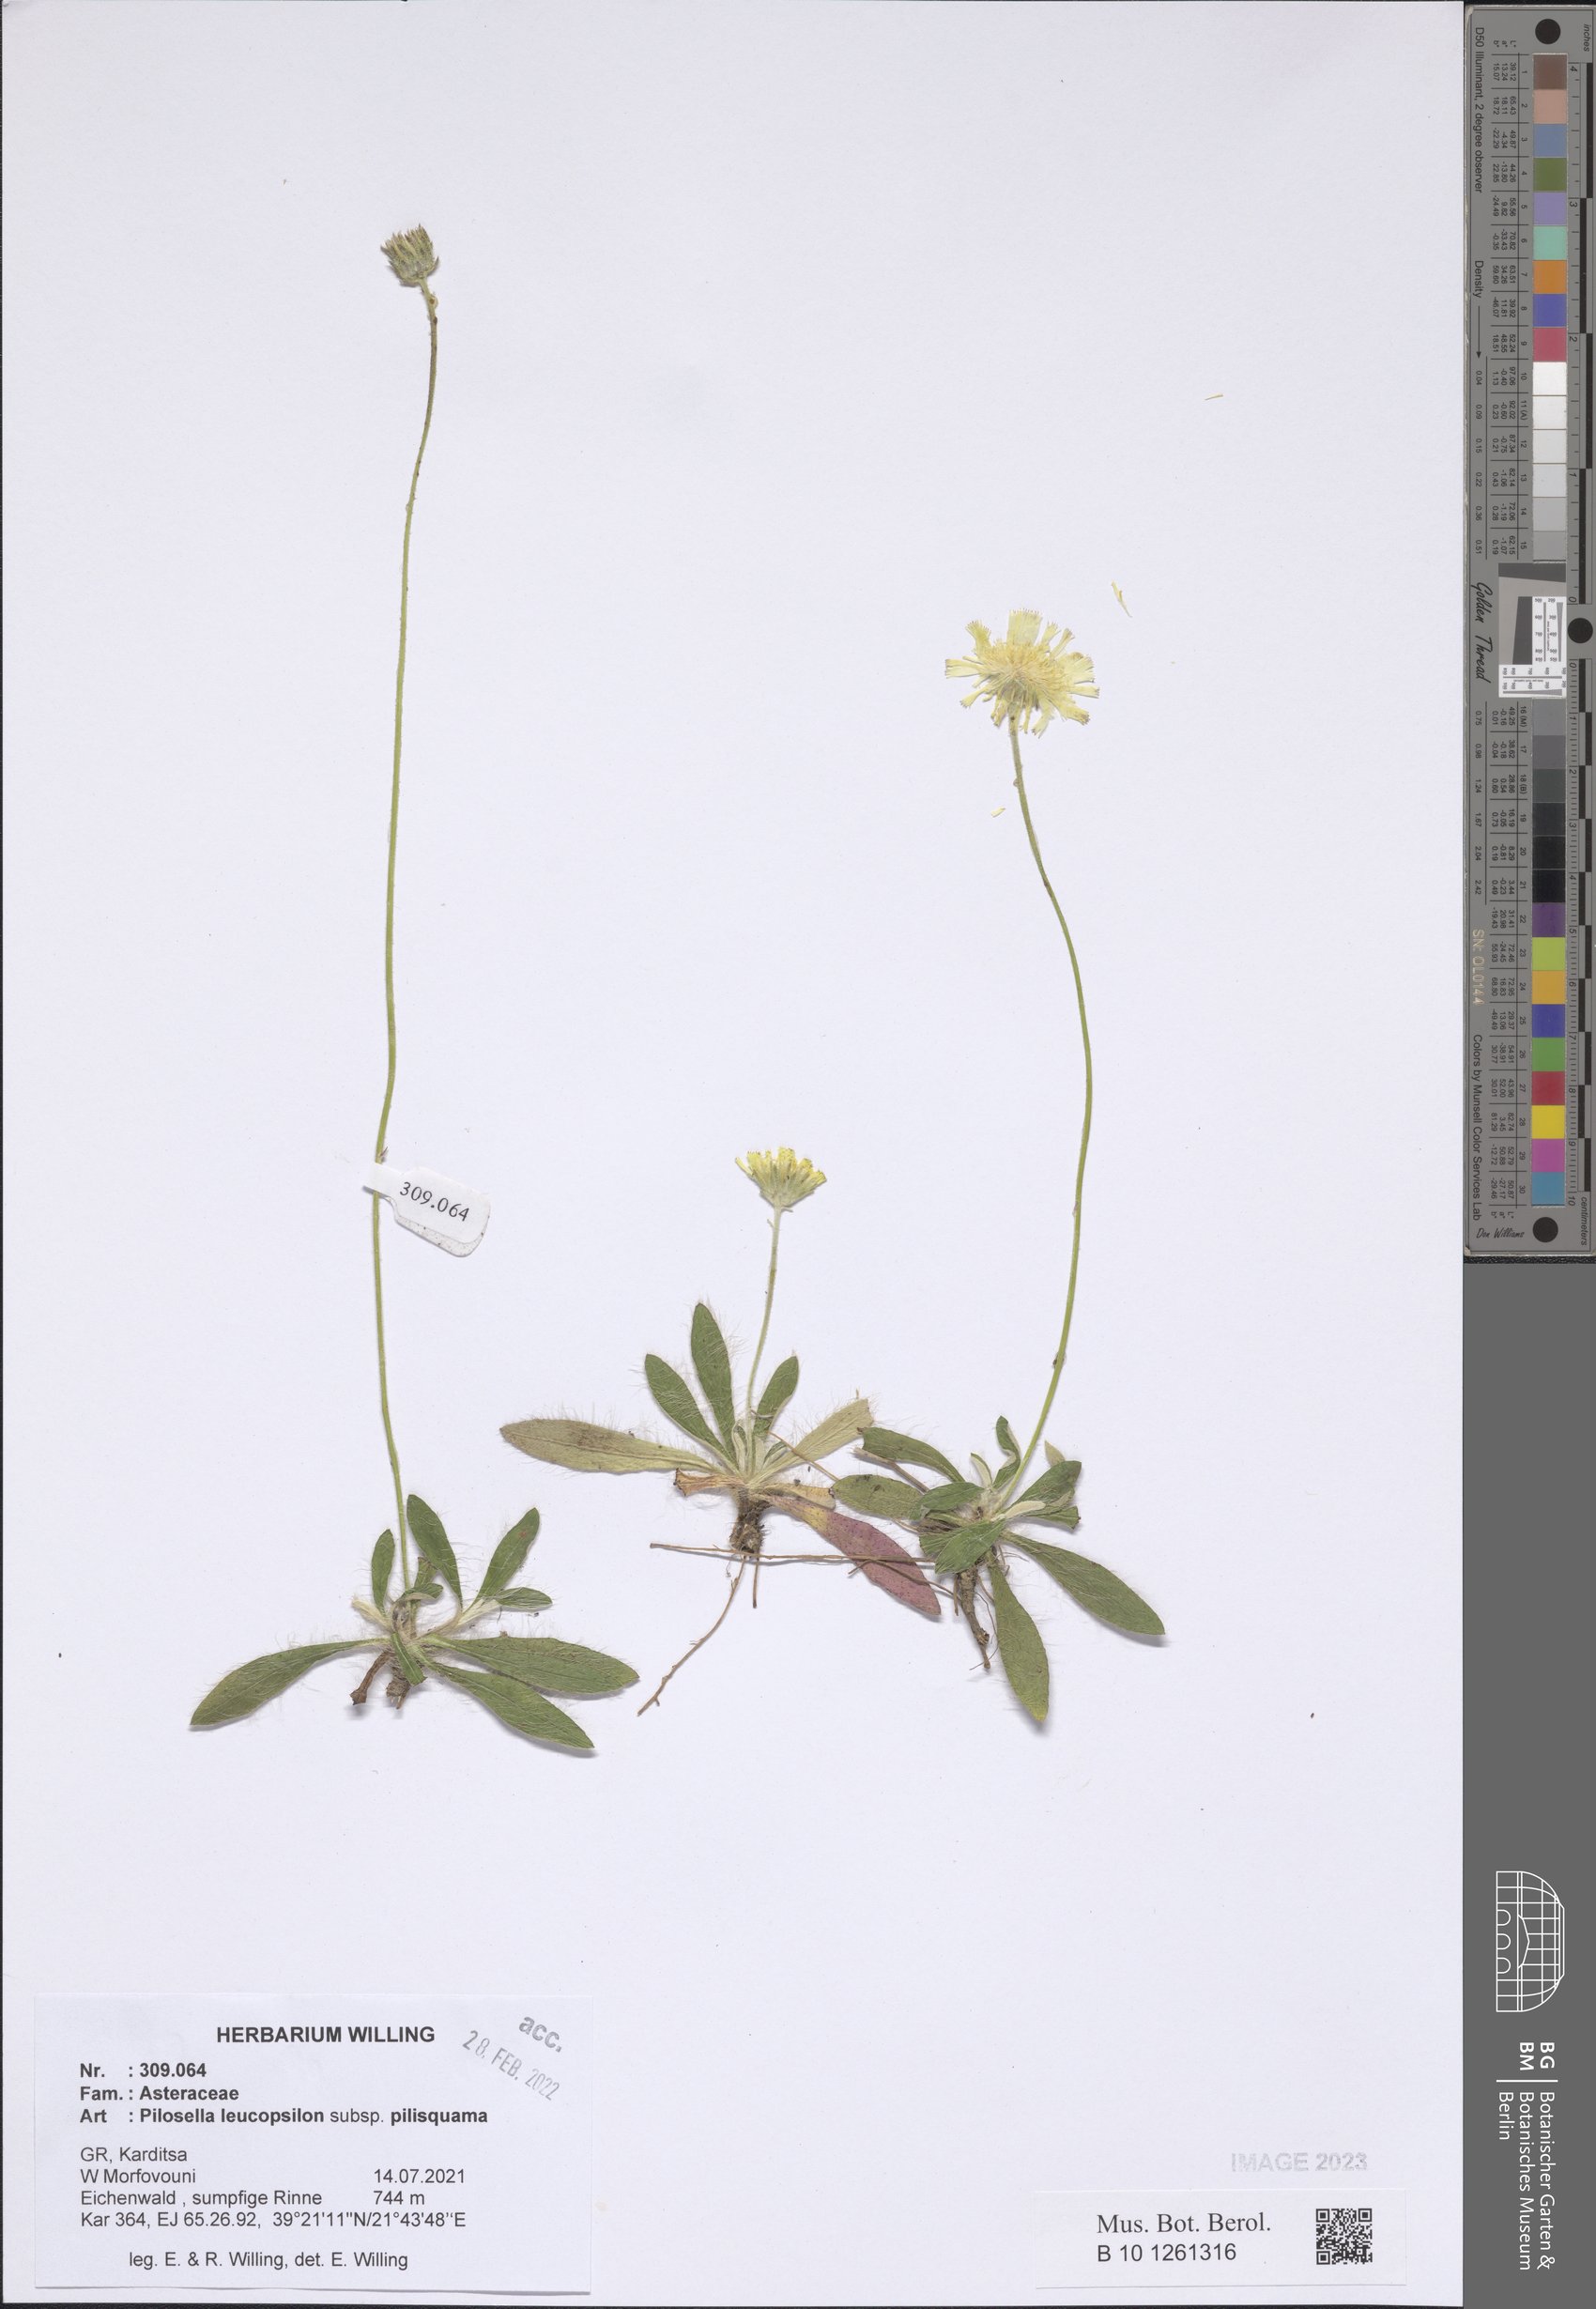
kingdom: Plantae
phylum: Tracheophyta
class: Magnoliopsida
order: Asterales
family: Asteraceae
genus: Pilosella
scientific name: Pilosella leucopsilon
